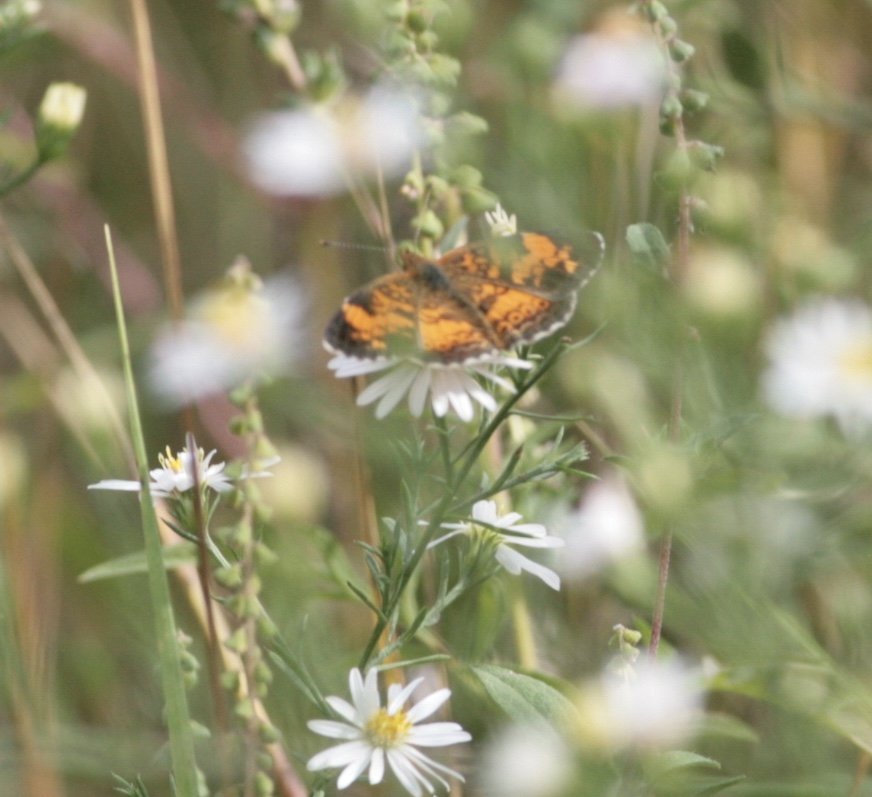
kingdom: Animalia
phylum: Arthropoda
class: Insecta
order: Lepidoptera
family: Nymphalidae
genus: Phyciodes
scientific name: Phyciodes tharos
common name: Pearl Crescent
